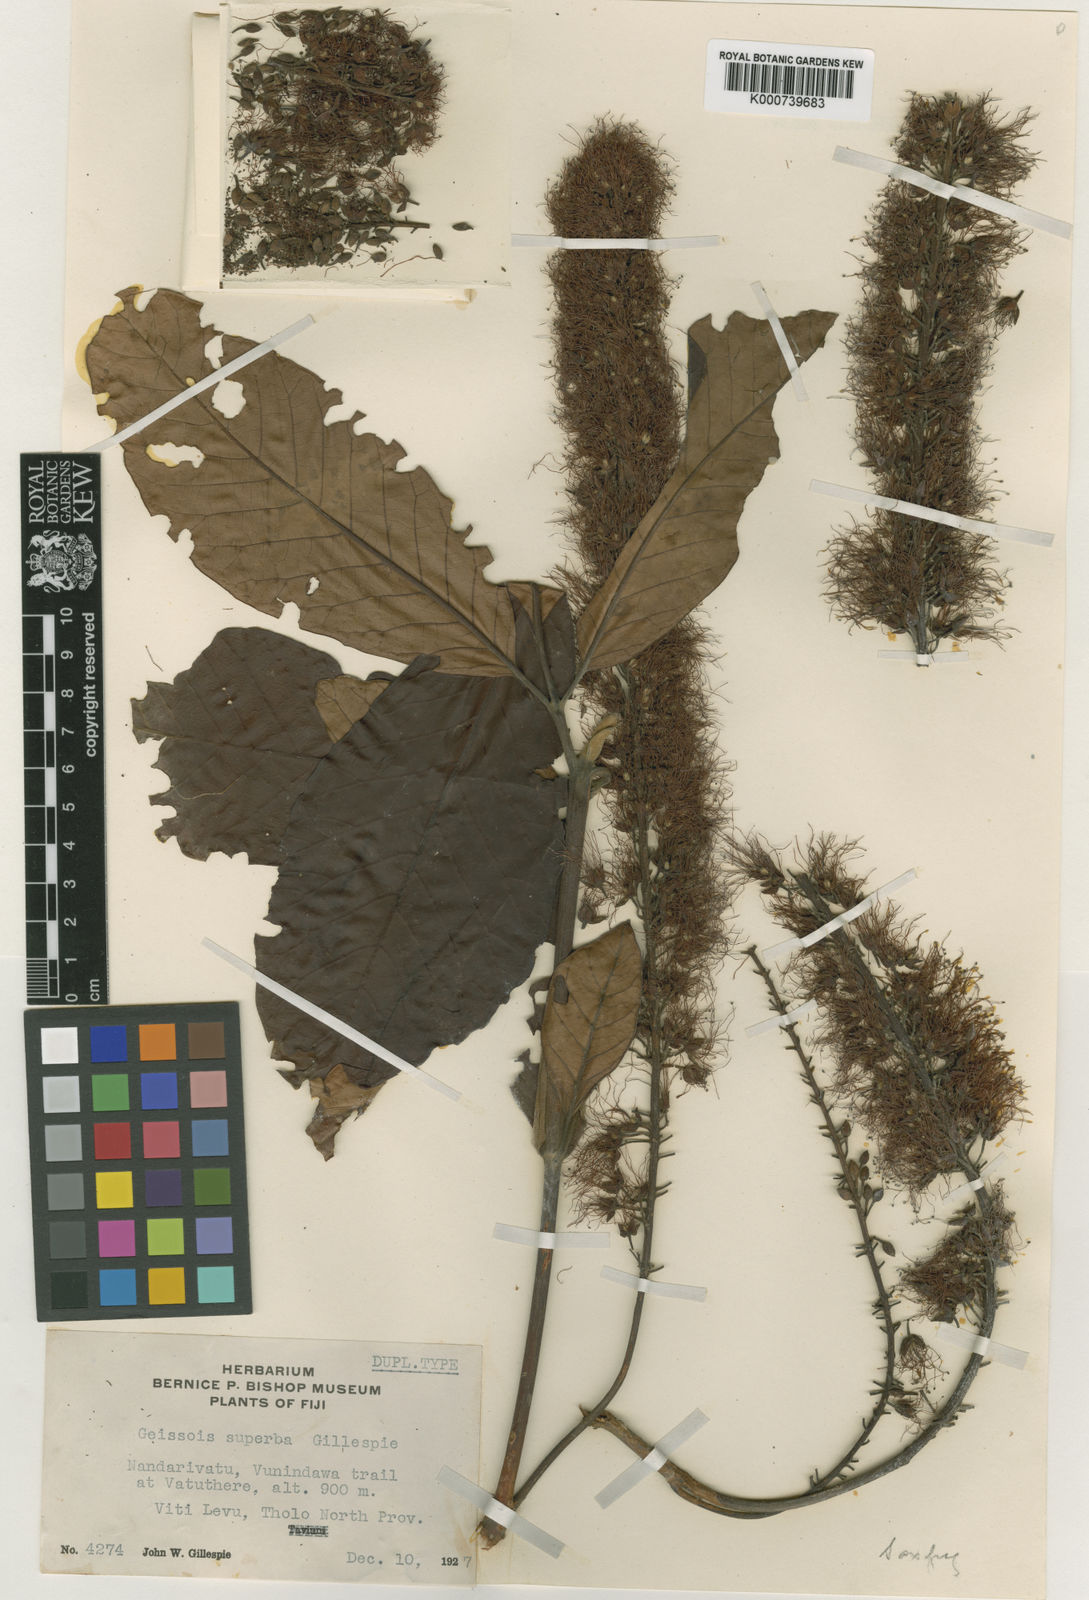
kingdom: Plantae
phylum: Tracheophyta
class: Magnoliopsida
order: Oxalidales
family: Cunoniaceae
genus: Geissois
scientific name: Geissois superba
